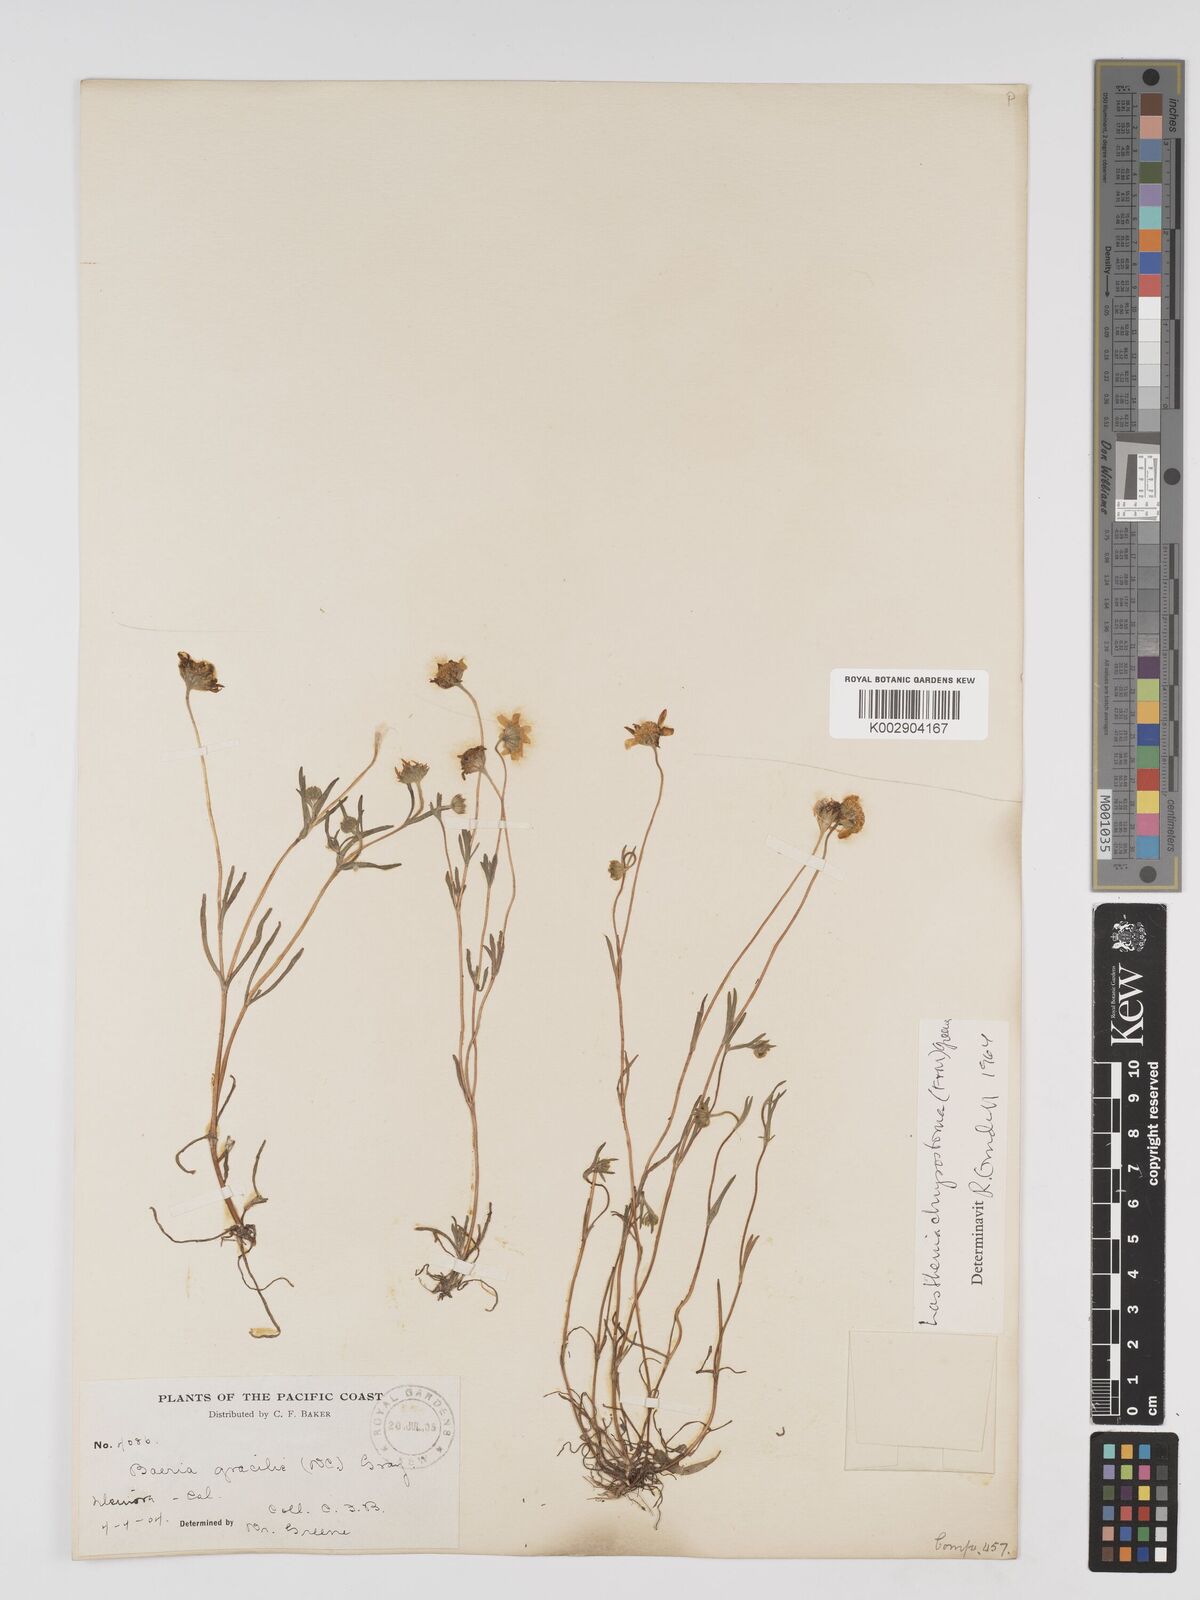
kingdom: Plantae
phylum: Tracheophyta
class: Magnoliopsida
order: Asterales
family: Asteraceae
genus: Lasthenia
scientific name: Lasthenia californica
